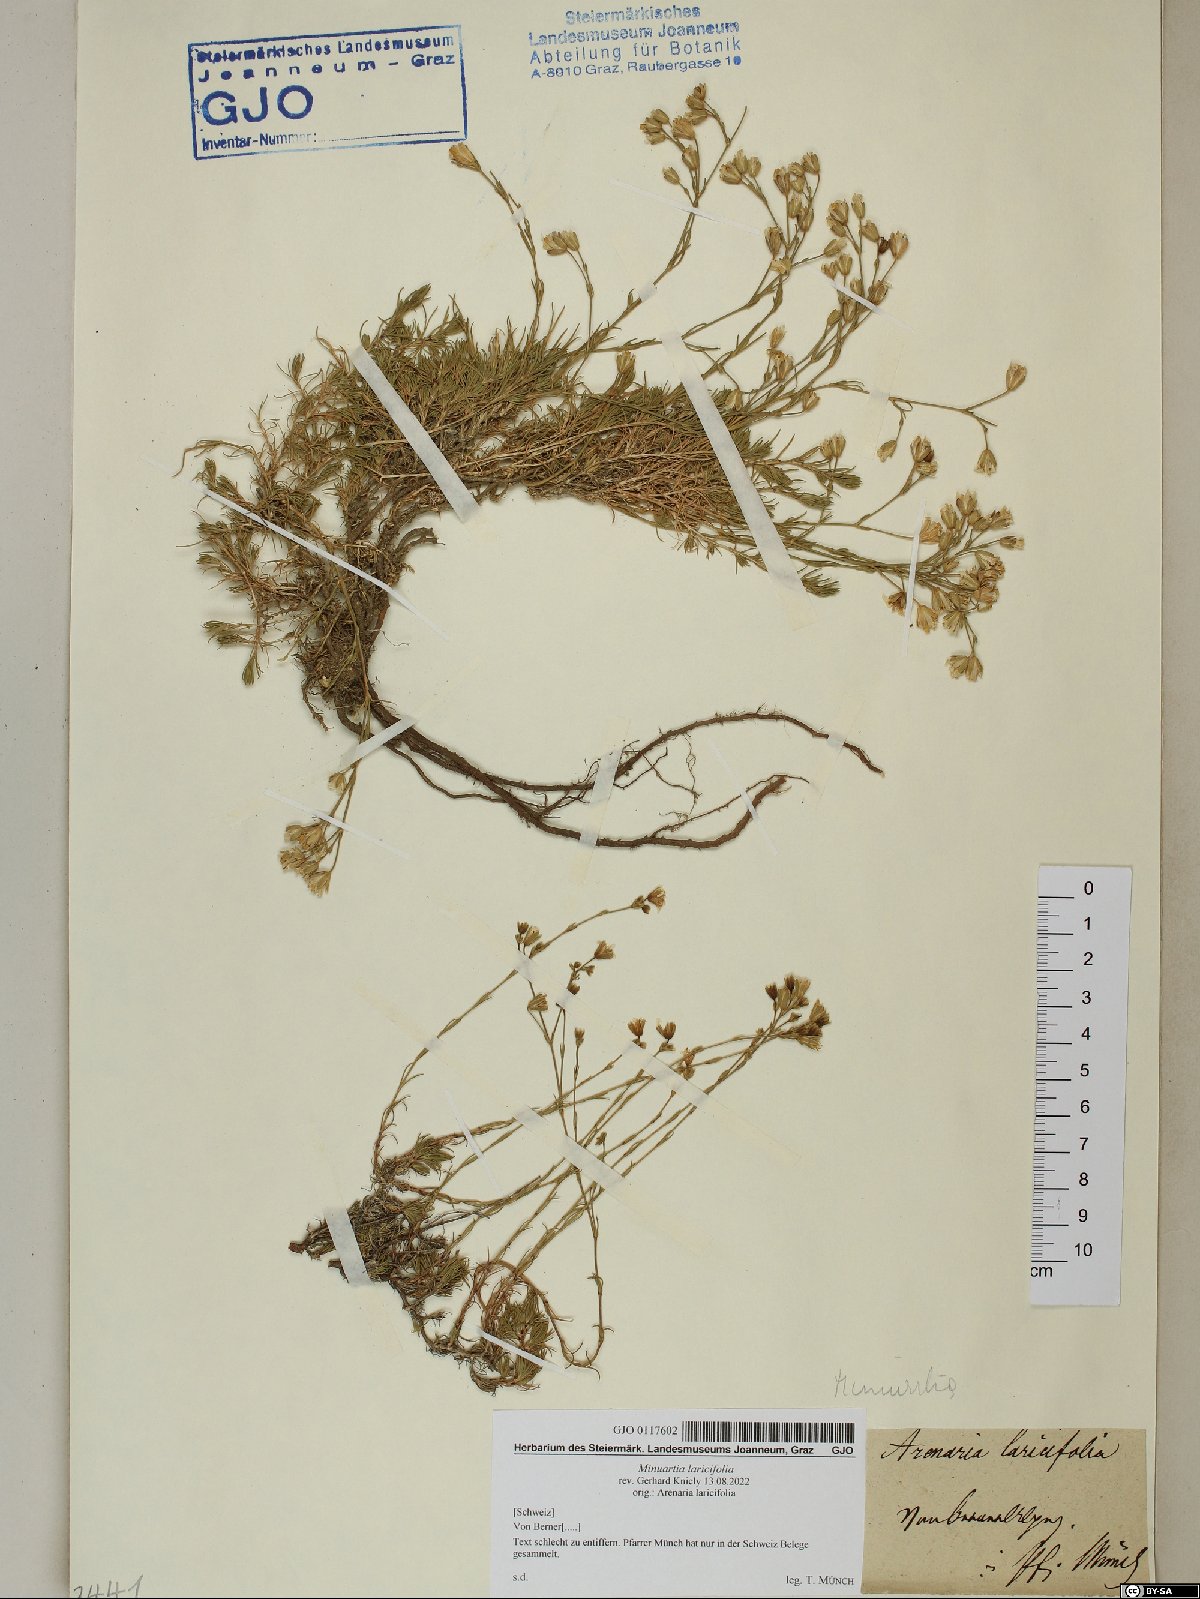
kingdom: Plantae
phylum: Tracheophyta
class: Magnoliopsida
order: Caryophyllales
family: Caryophyllaceae
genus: Cherleria
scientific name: Cherleria laricifolia
